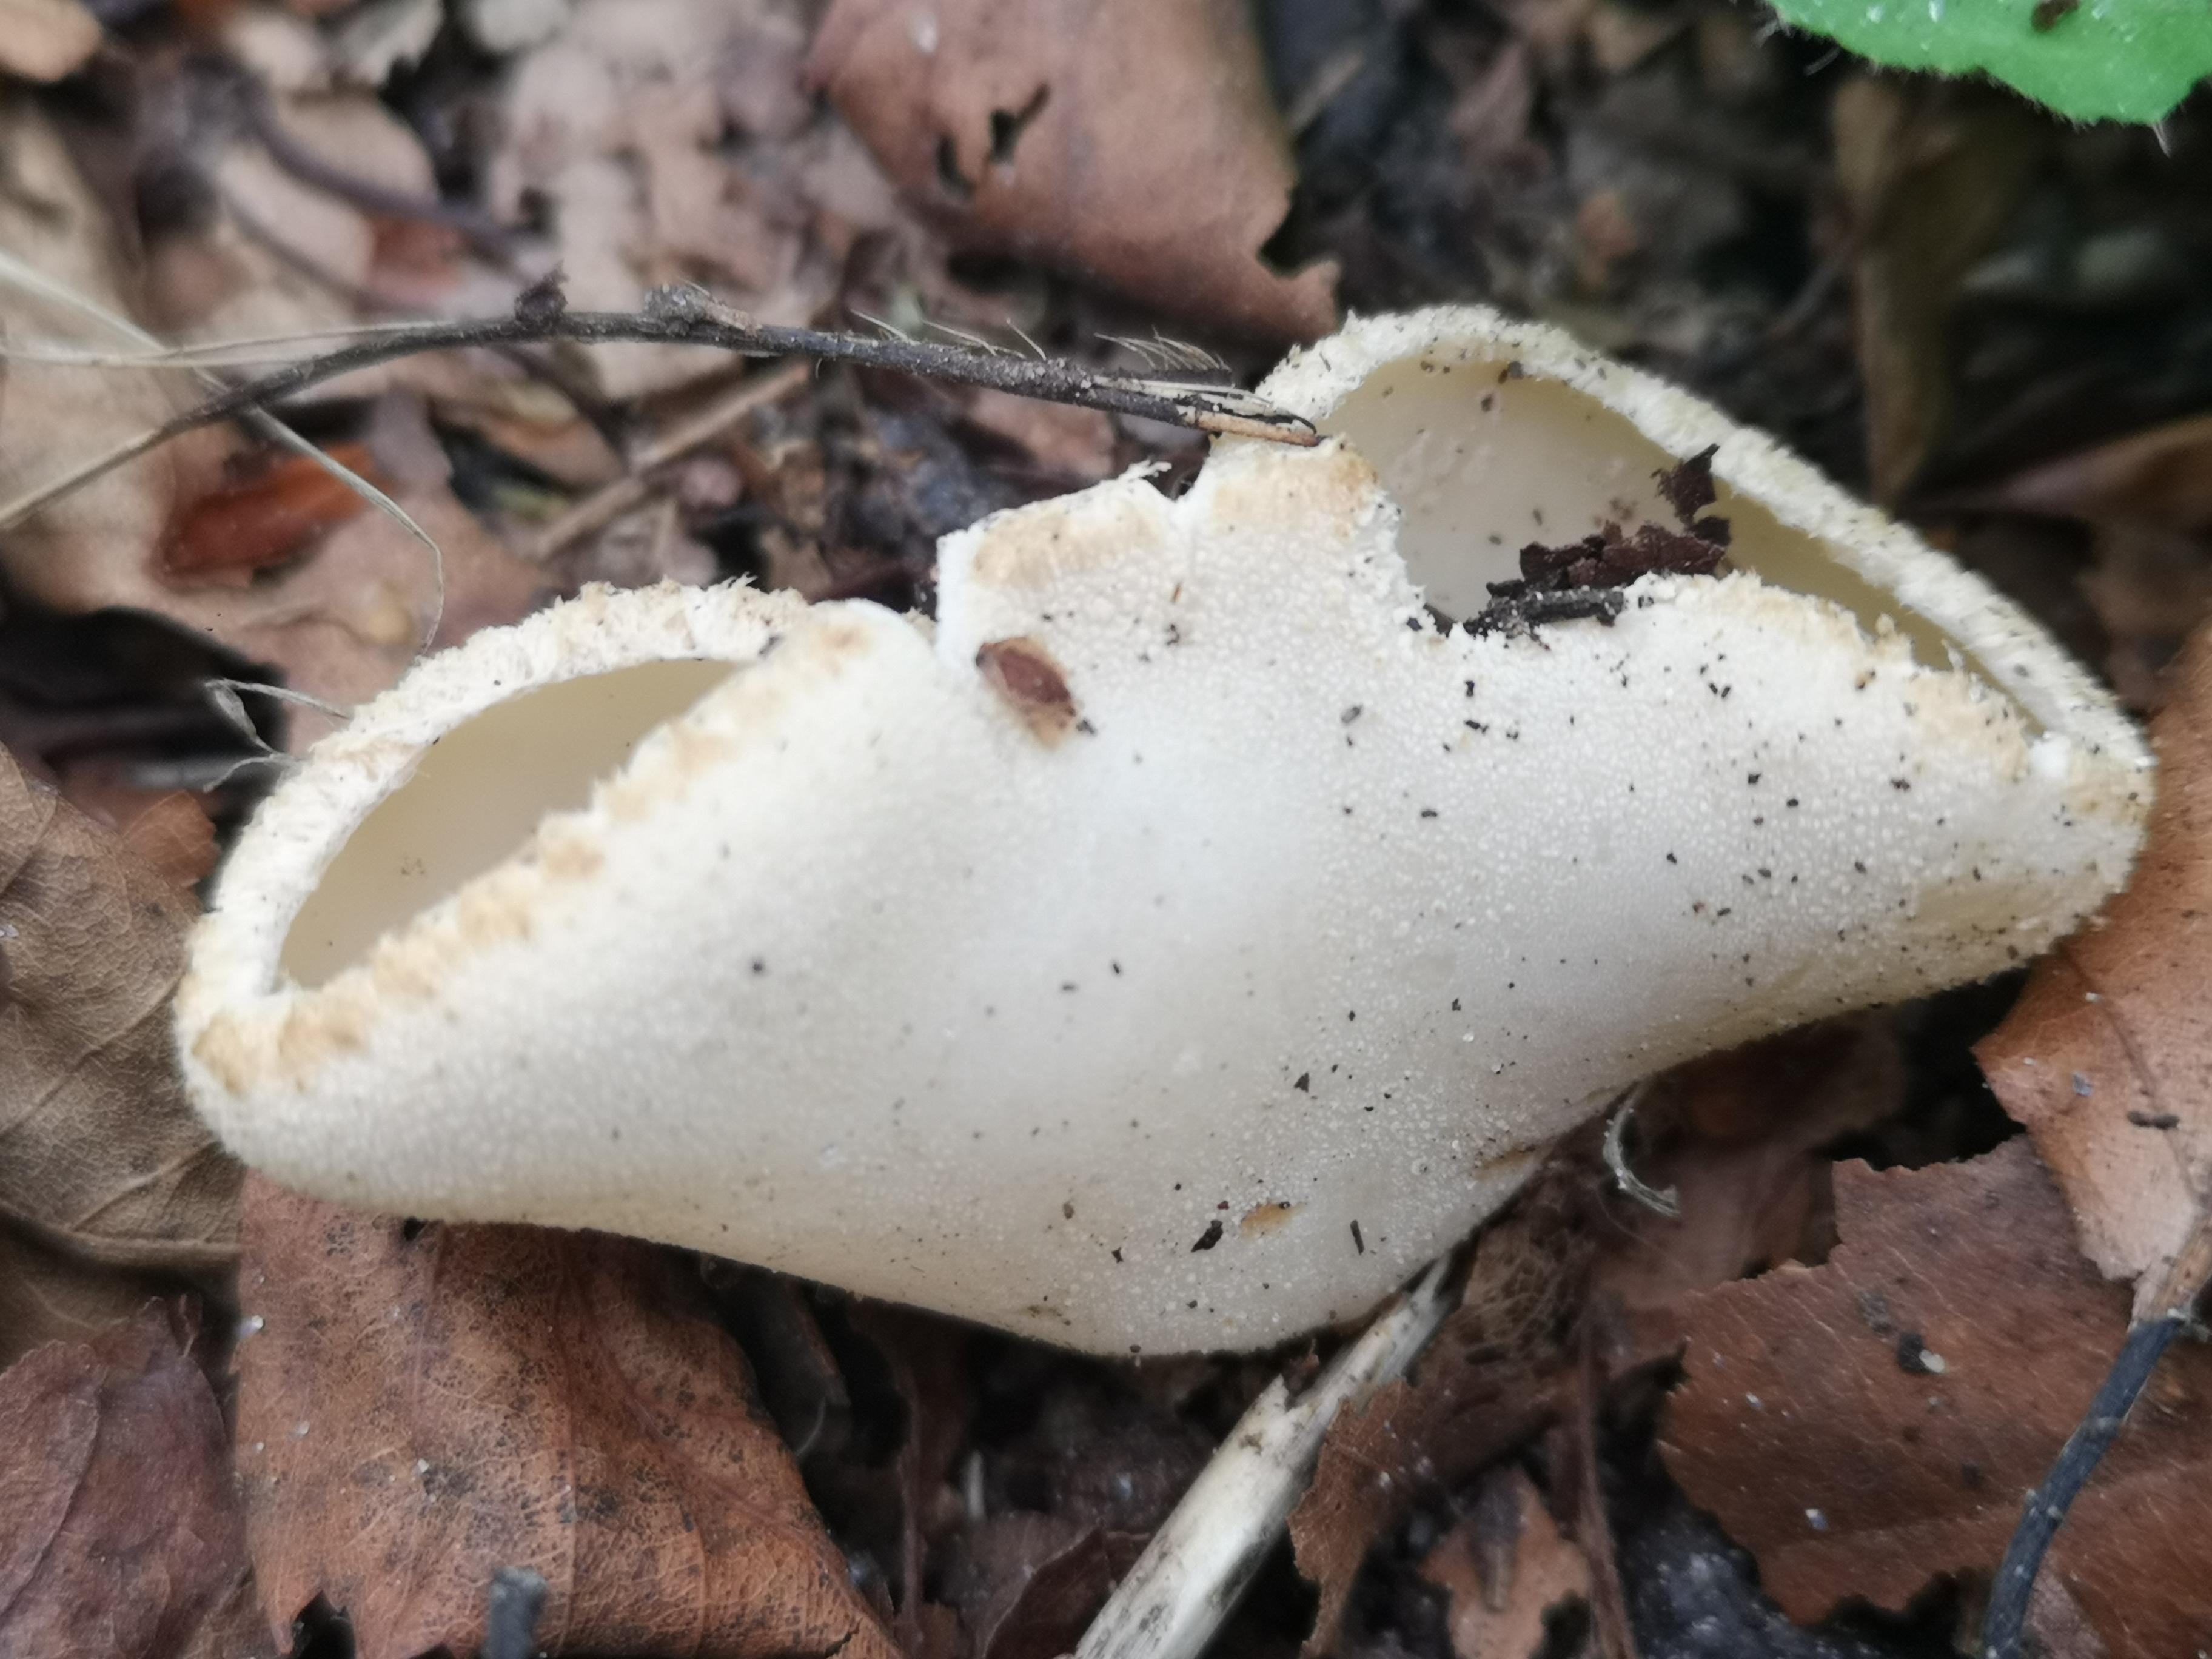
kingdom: Fungi
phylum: Ascomycota
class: Pezizomycetes
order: Pezizales
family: Pyronemataceae
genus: Tarzetta
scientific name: Tarzetta cupularis
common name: gulbrun pokalbæger
